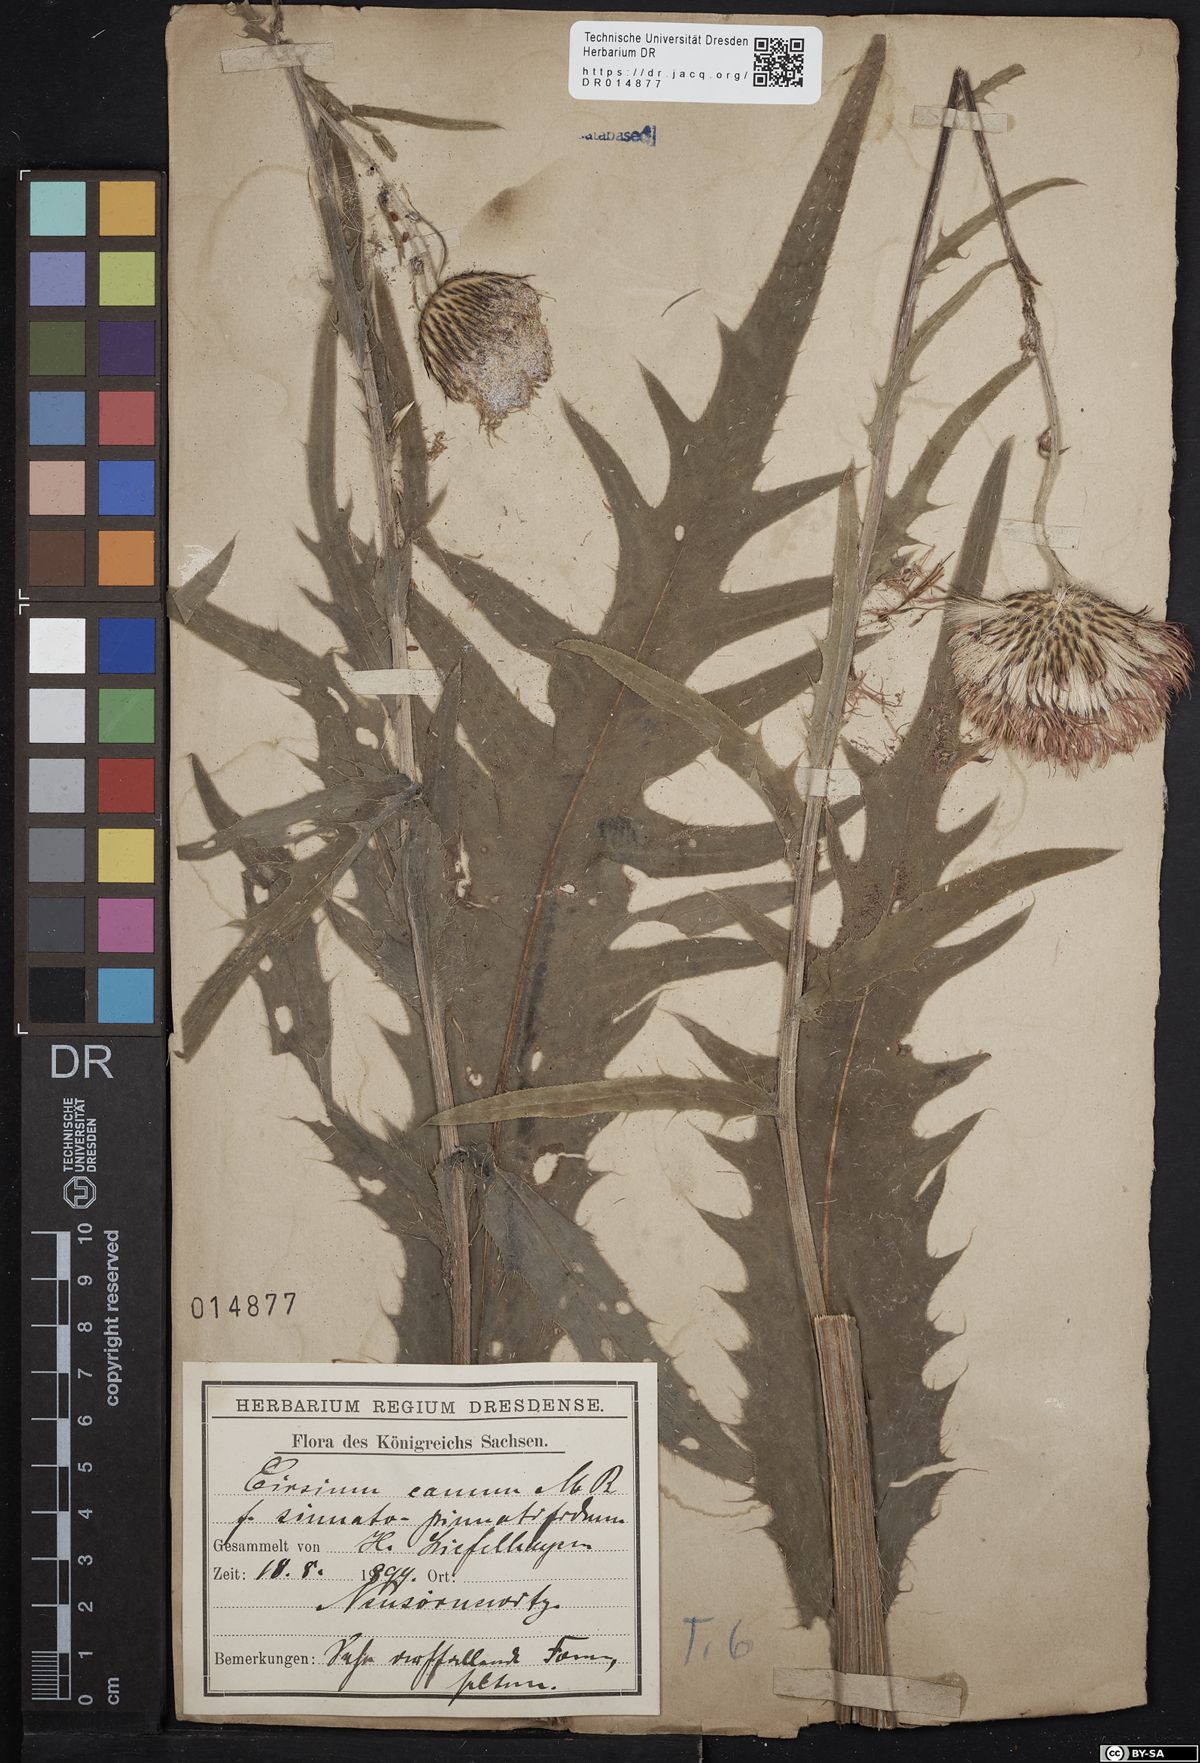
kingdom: Plantae
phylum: Tracheophyta
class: Magnoliopsida
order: Asterales
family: Asteraceae
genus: Cirsium
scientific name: Cirsium canum
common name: Queen anne's thistle
